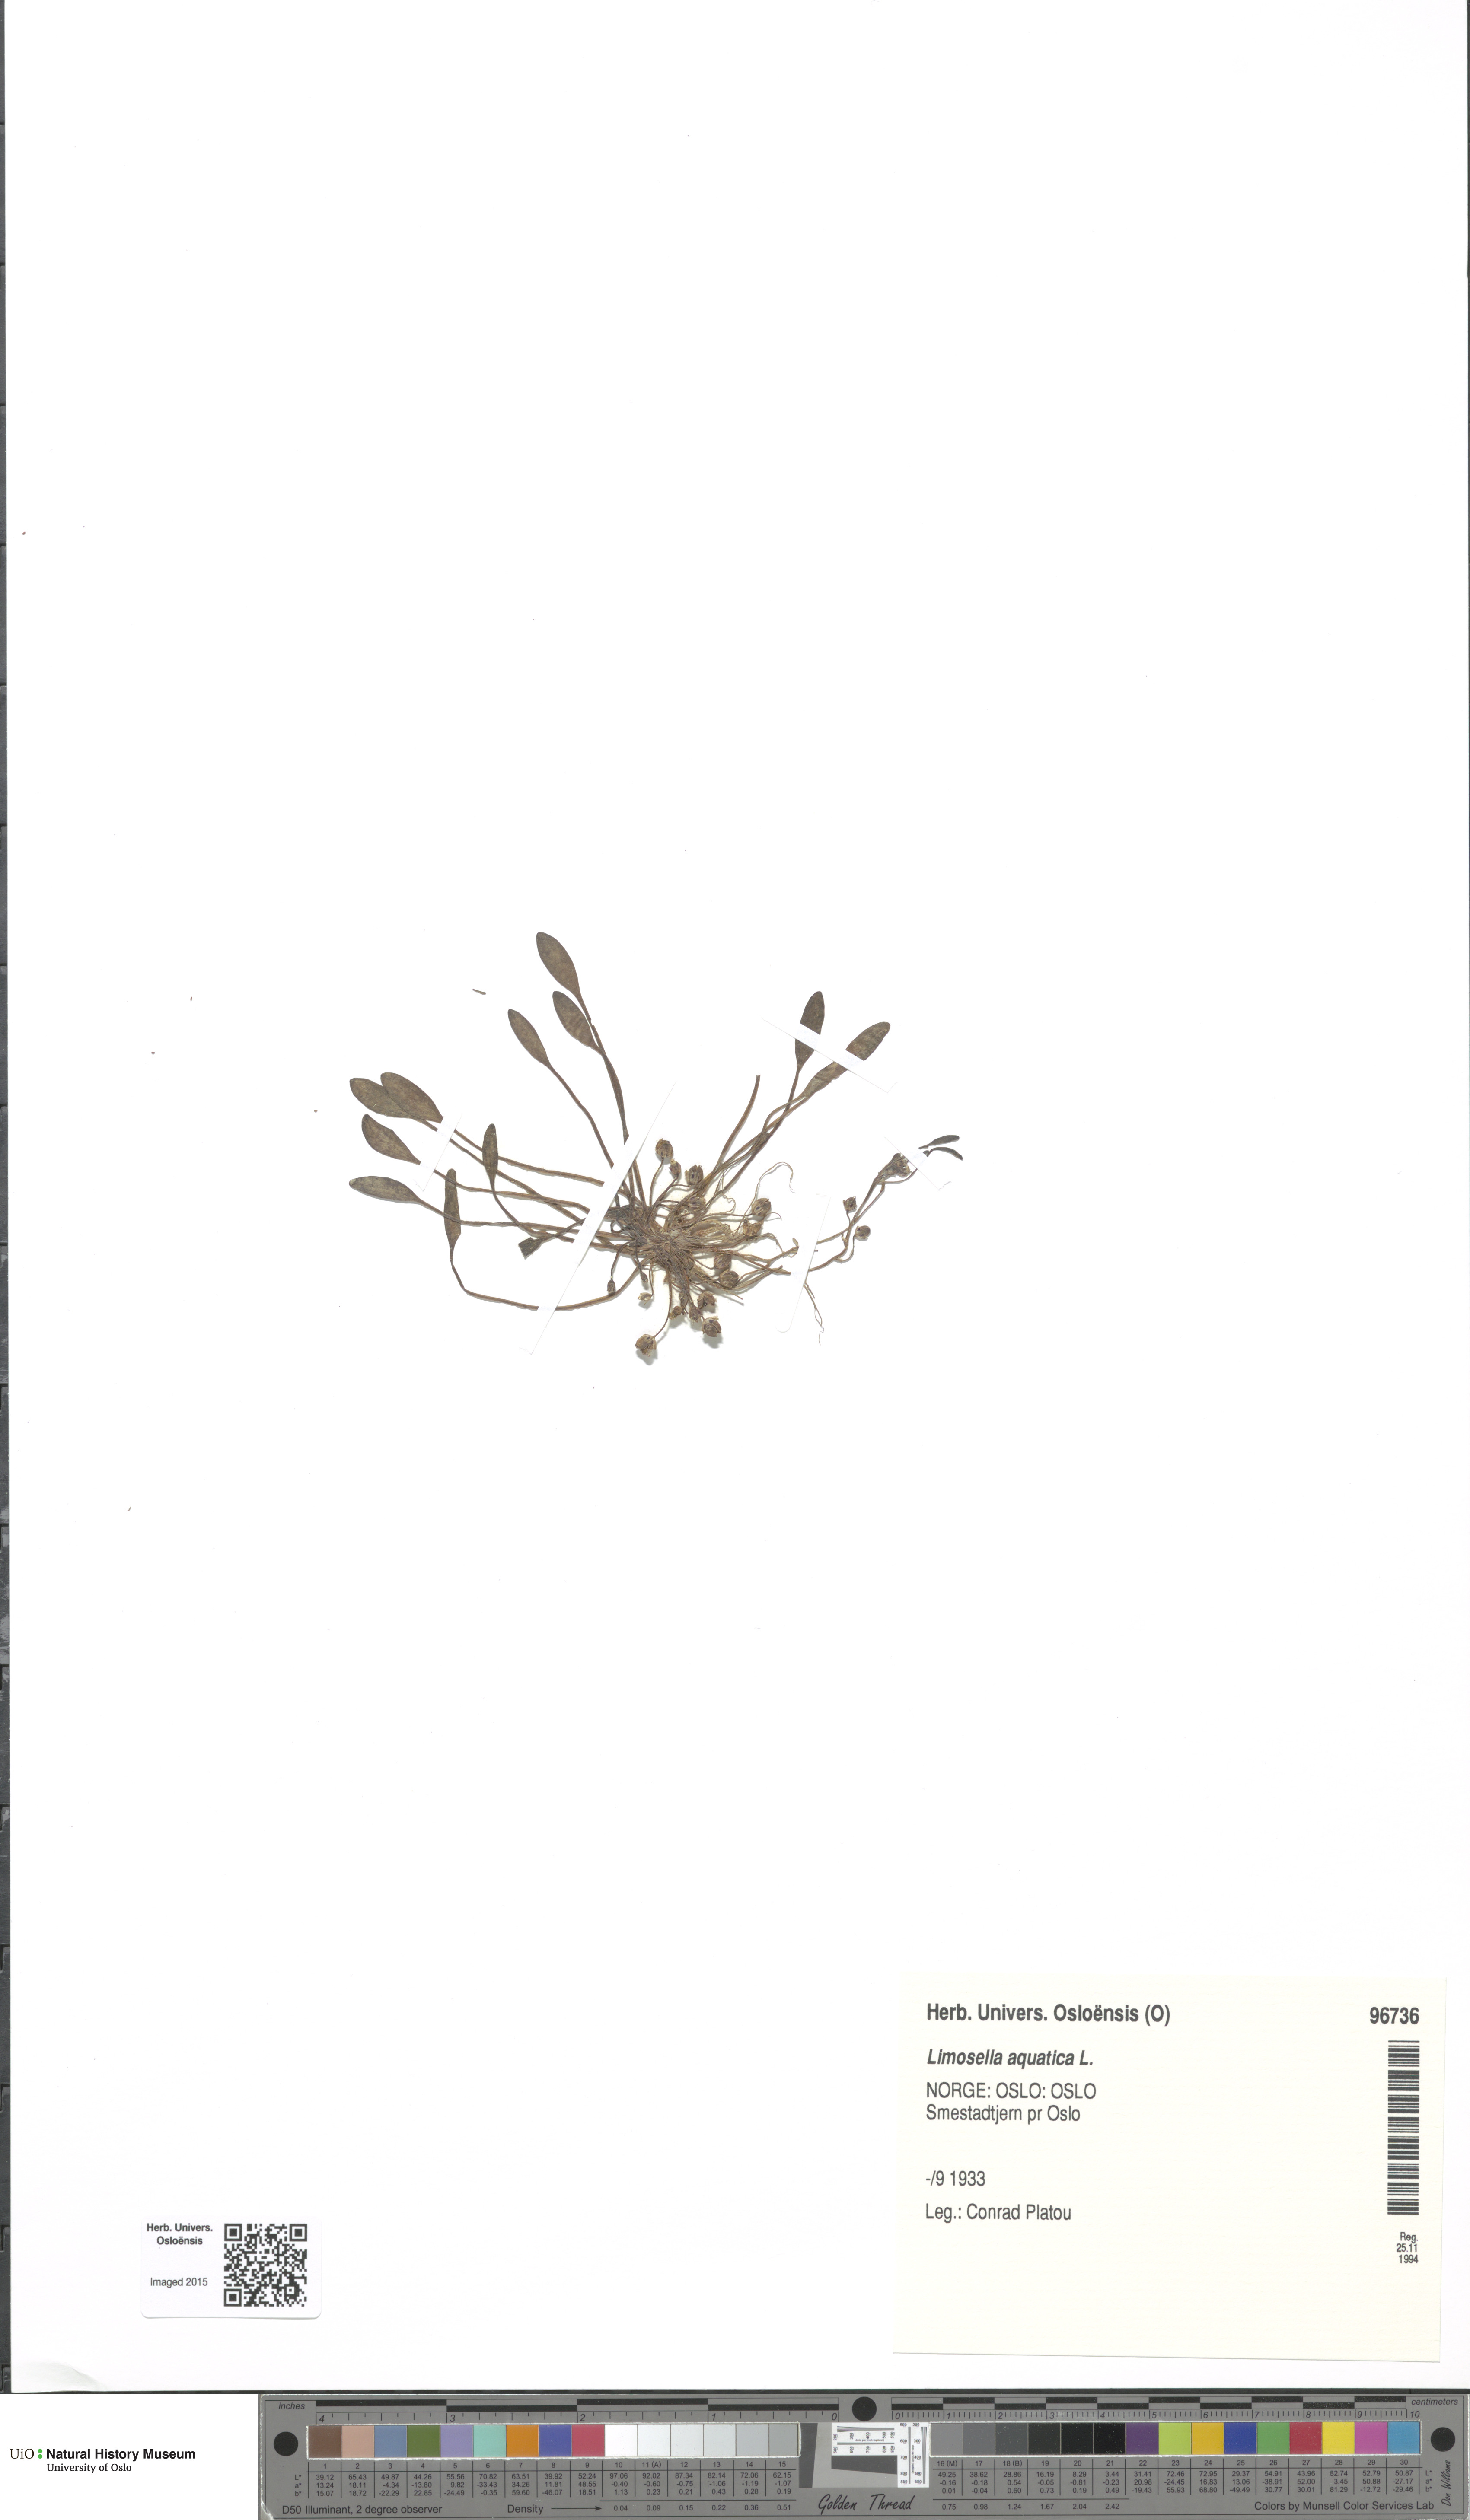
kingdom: Plantae
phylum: Tracheophyta
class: Magnoliopsida
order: Lamiales
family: Scrophulariaceae
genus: Limosella
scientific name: Limosella aquatica
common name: Mudwort
